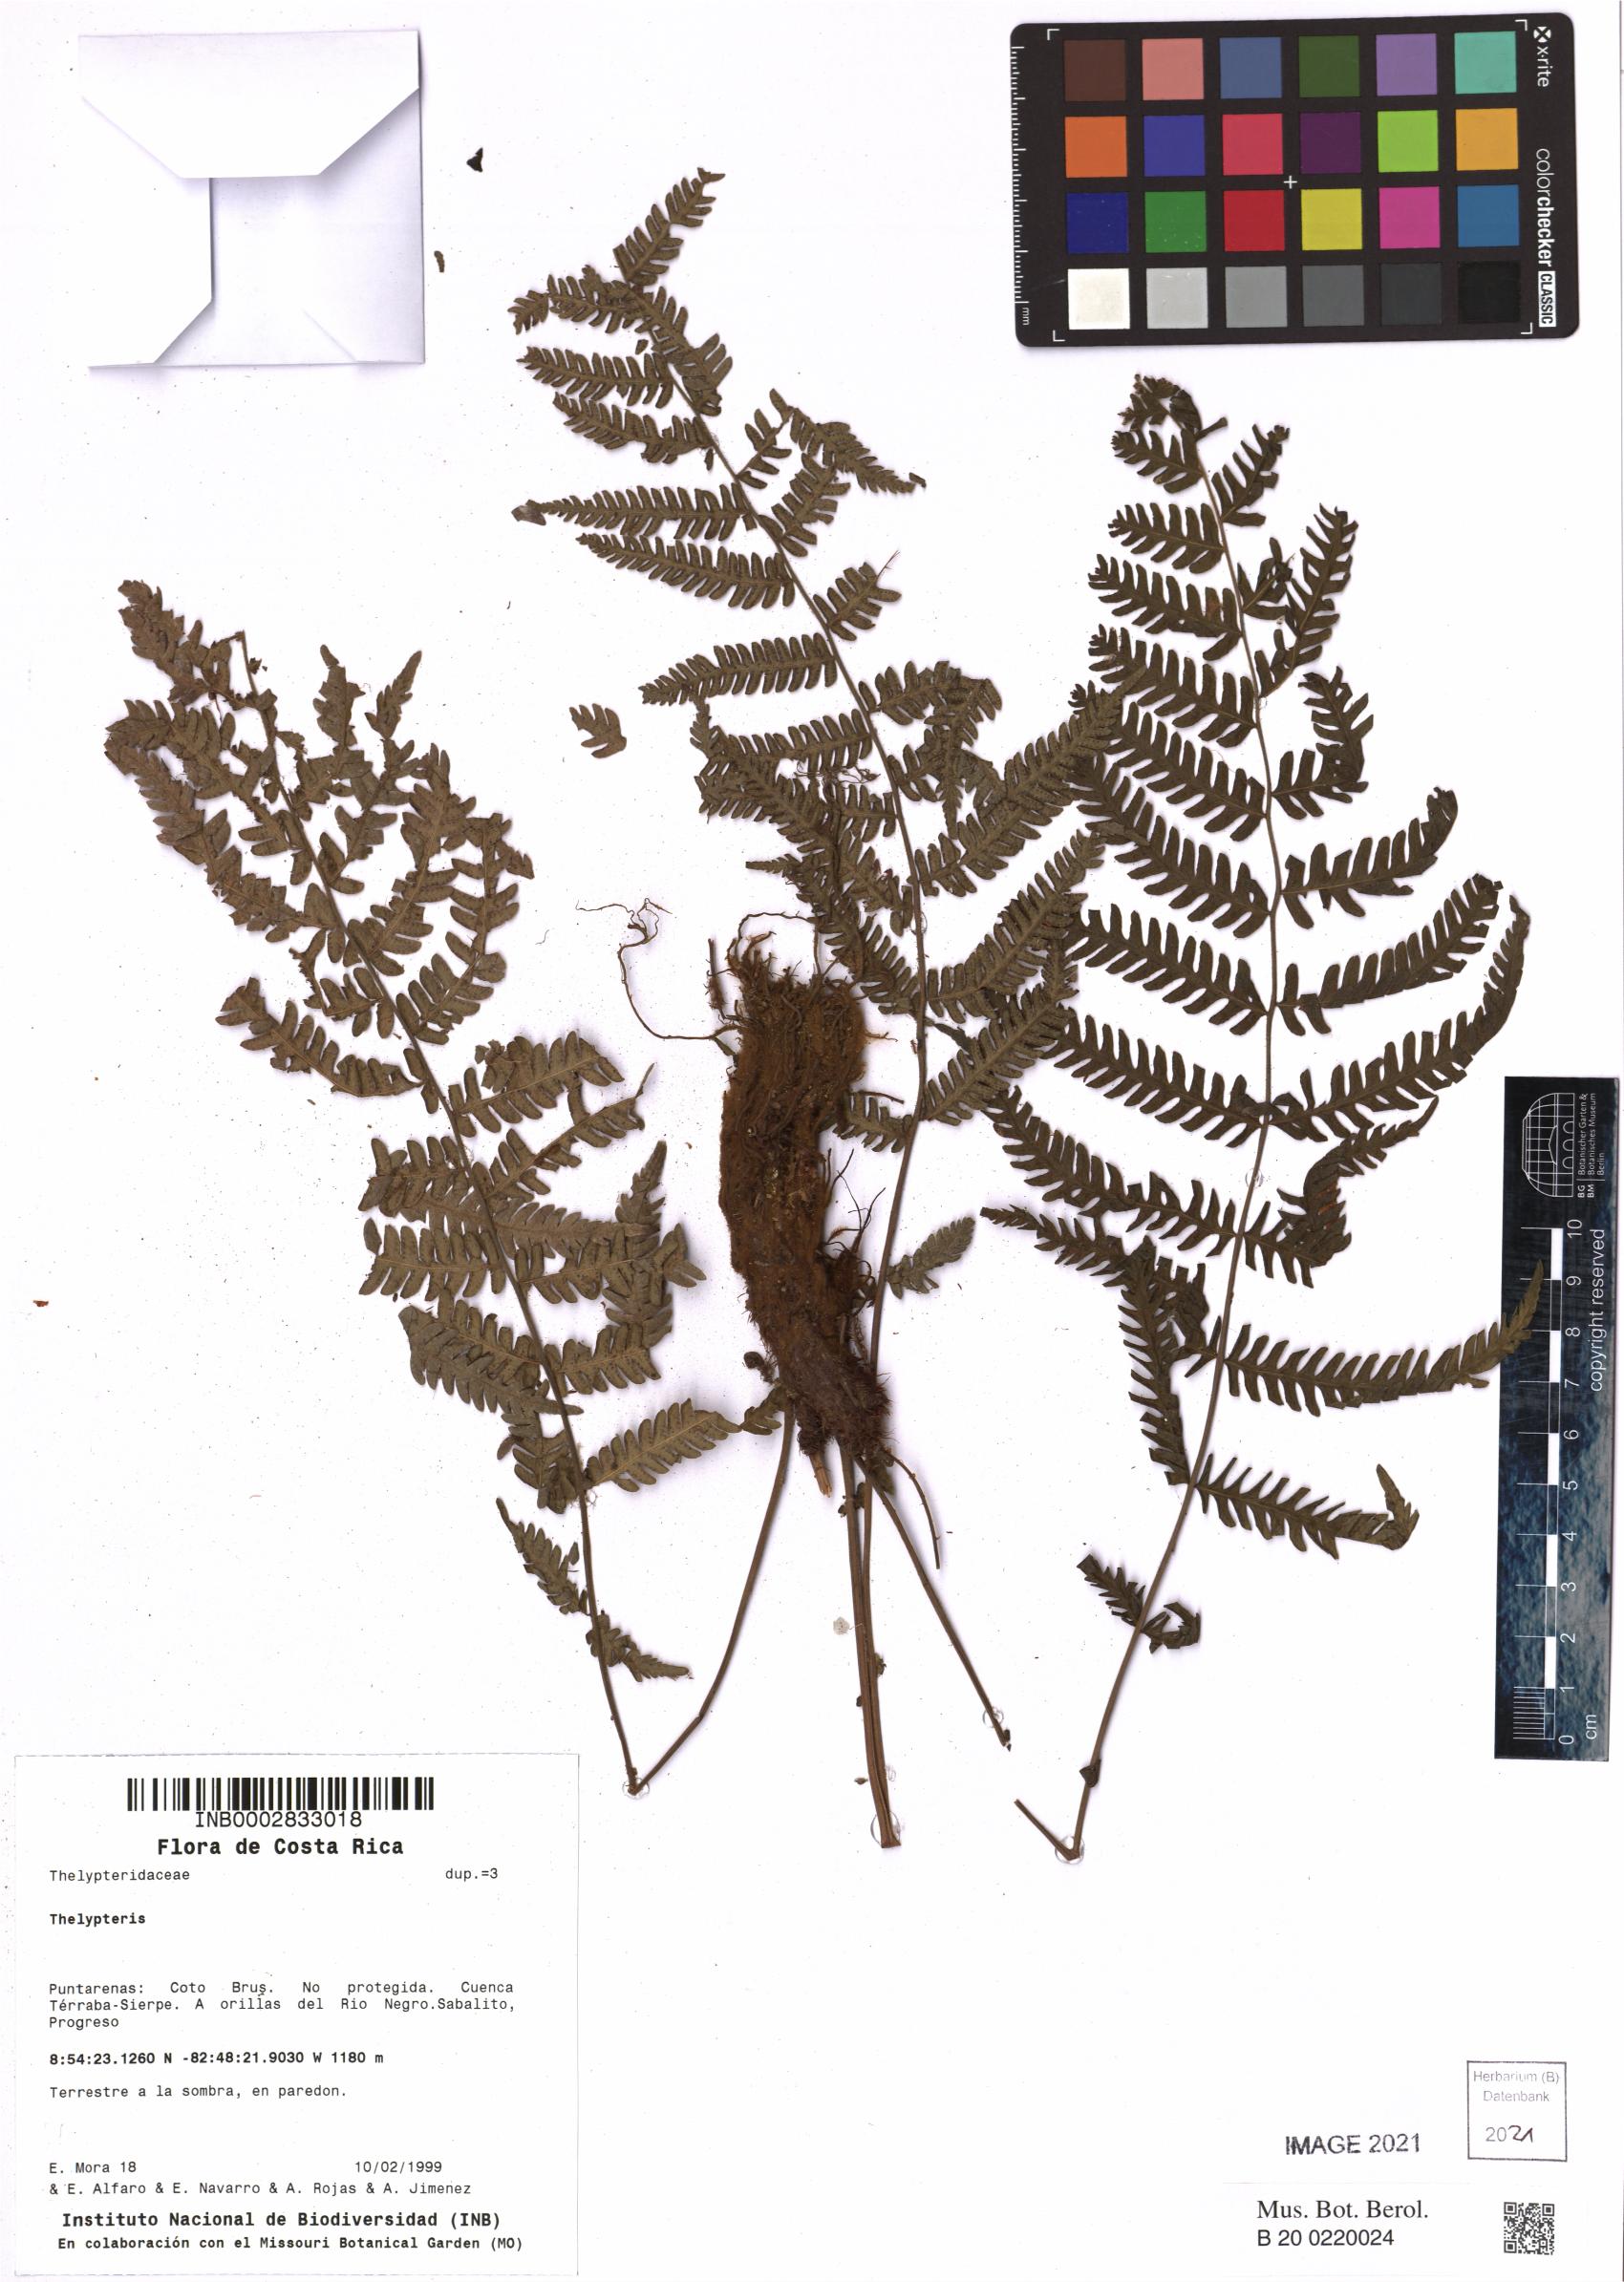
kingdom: Plantae
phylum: Tracheophyta
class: Polypodiopsida
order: Polypodiales
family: Thelypteridaceae
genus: Thelypteris
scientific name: Thelypteris
